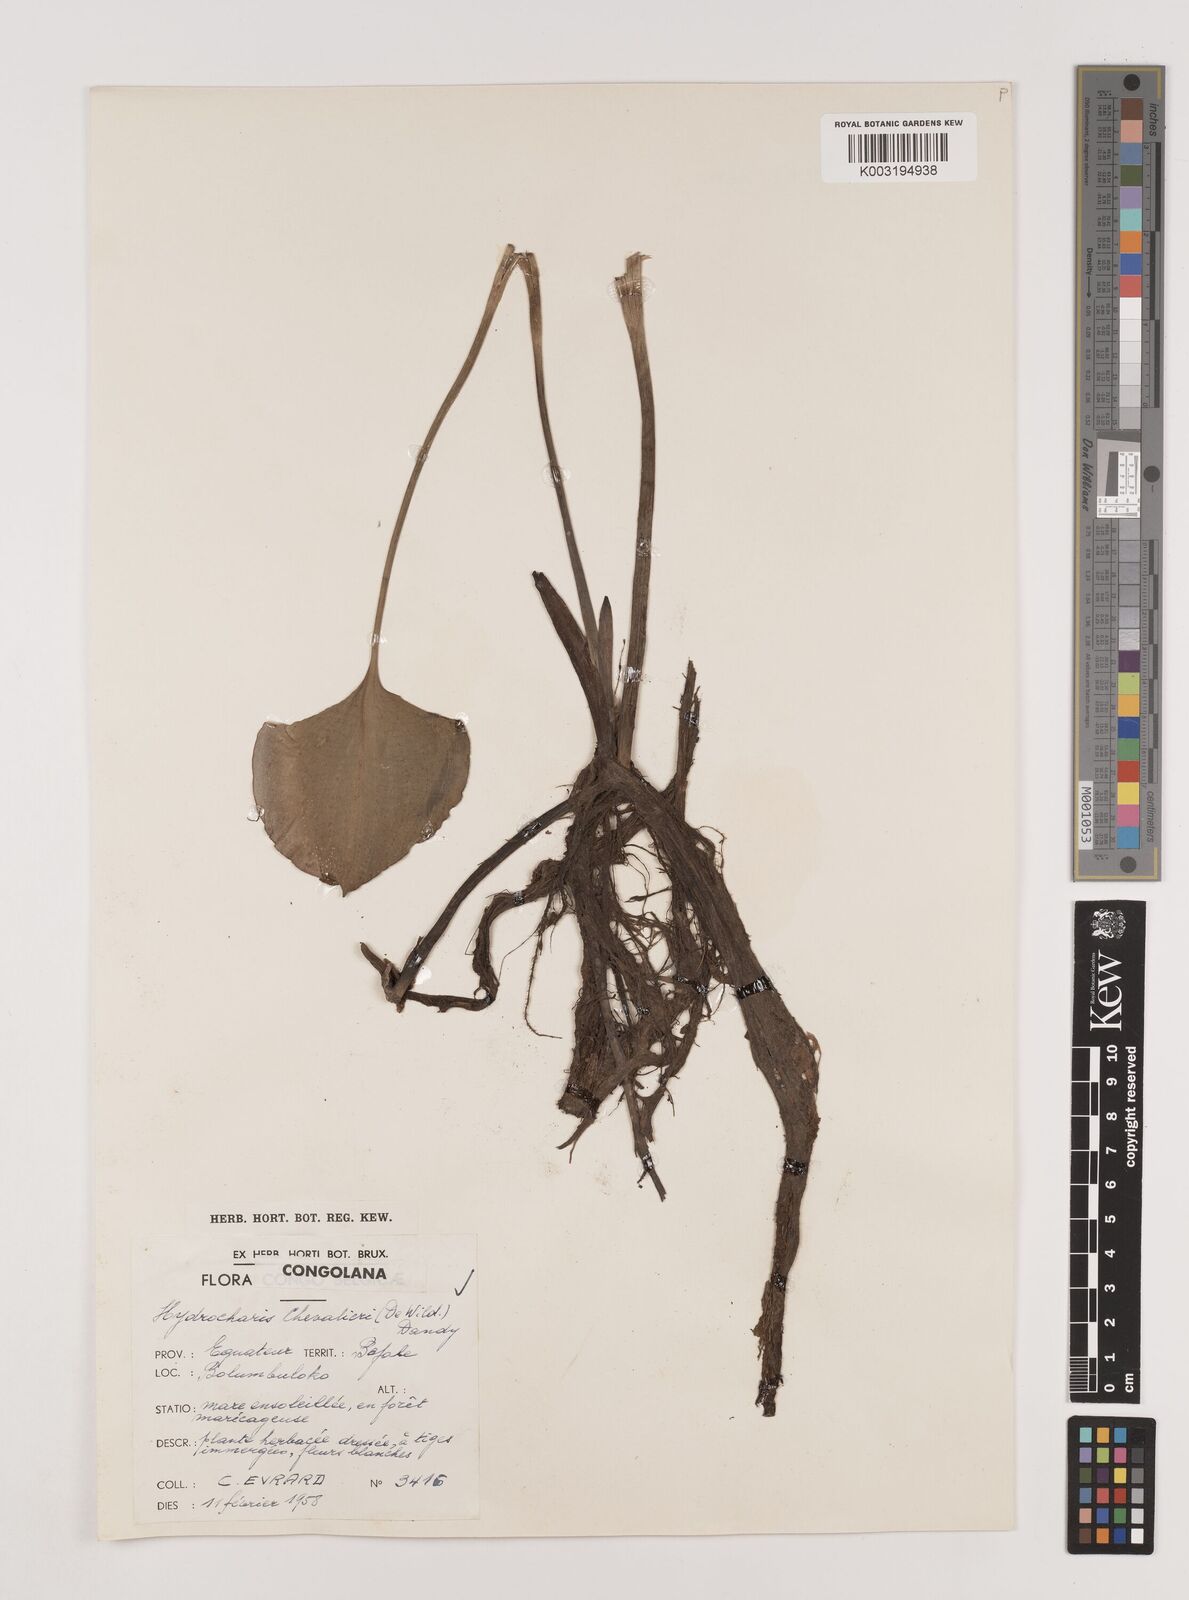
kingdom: Plantae
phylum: Tracheophyta
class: Liliopsida
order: Alismatales
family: Hydrocharitaceae
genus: Hydrocharis
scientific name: Hydrocharis chevalieri
